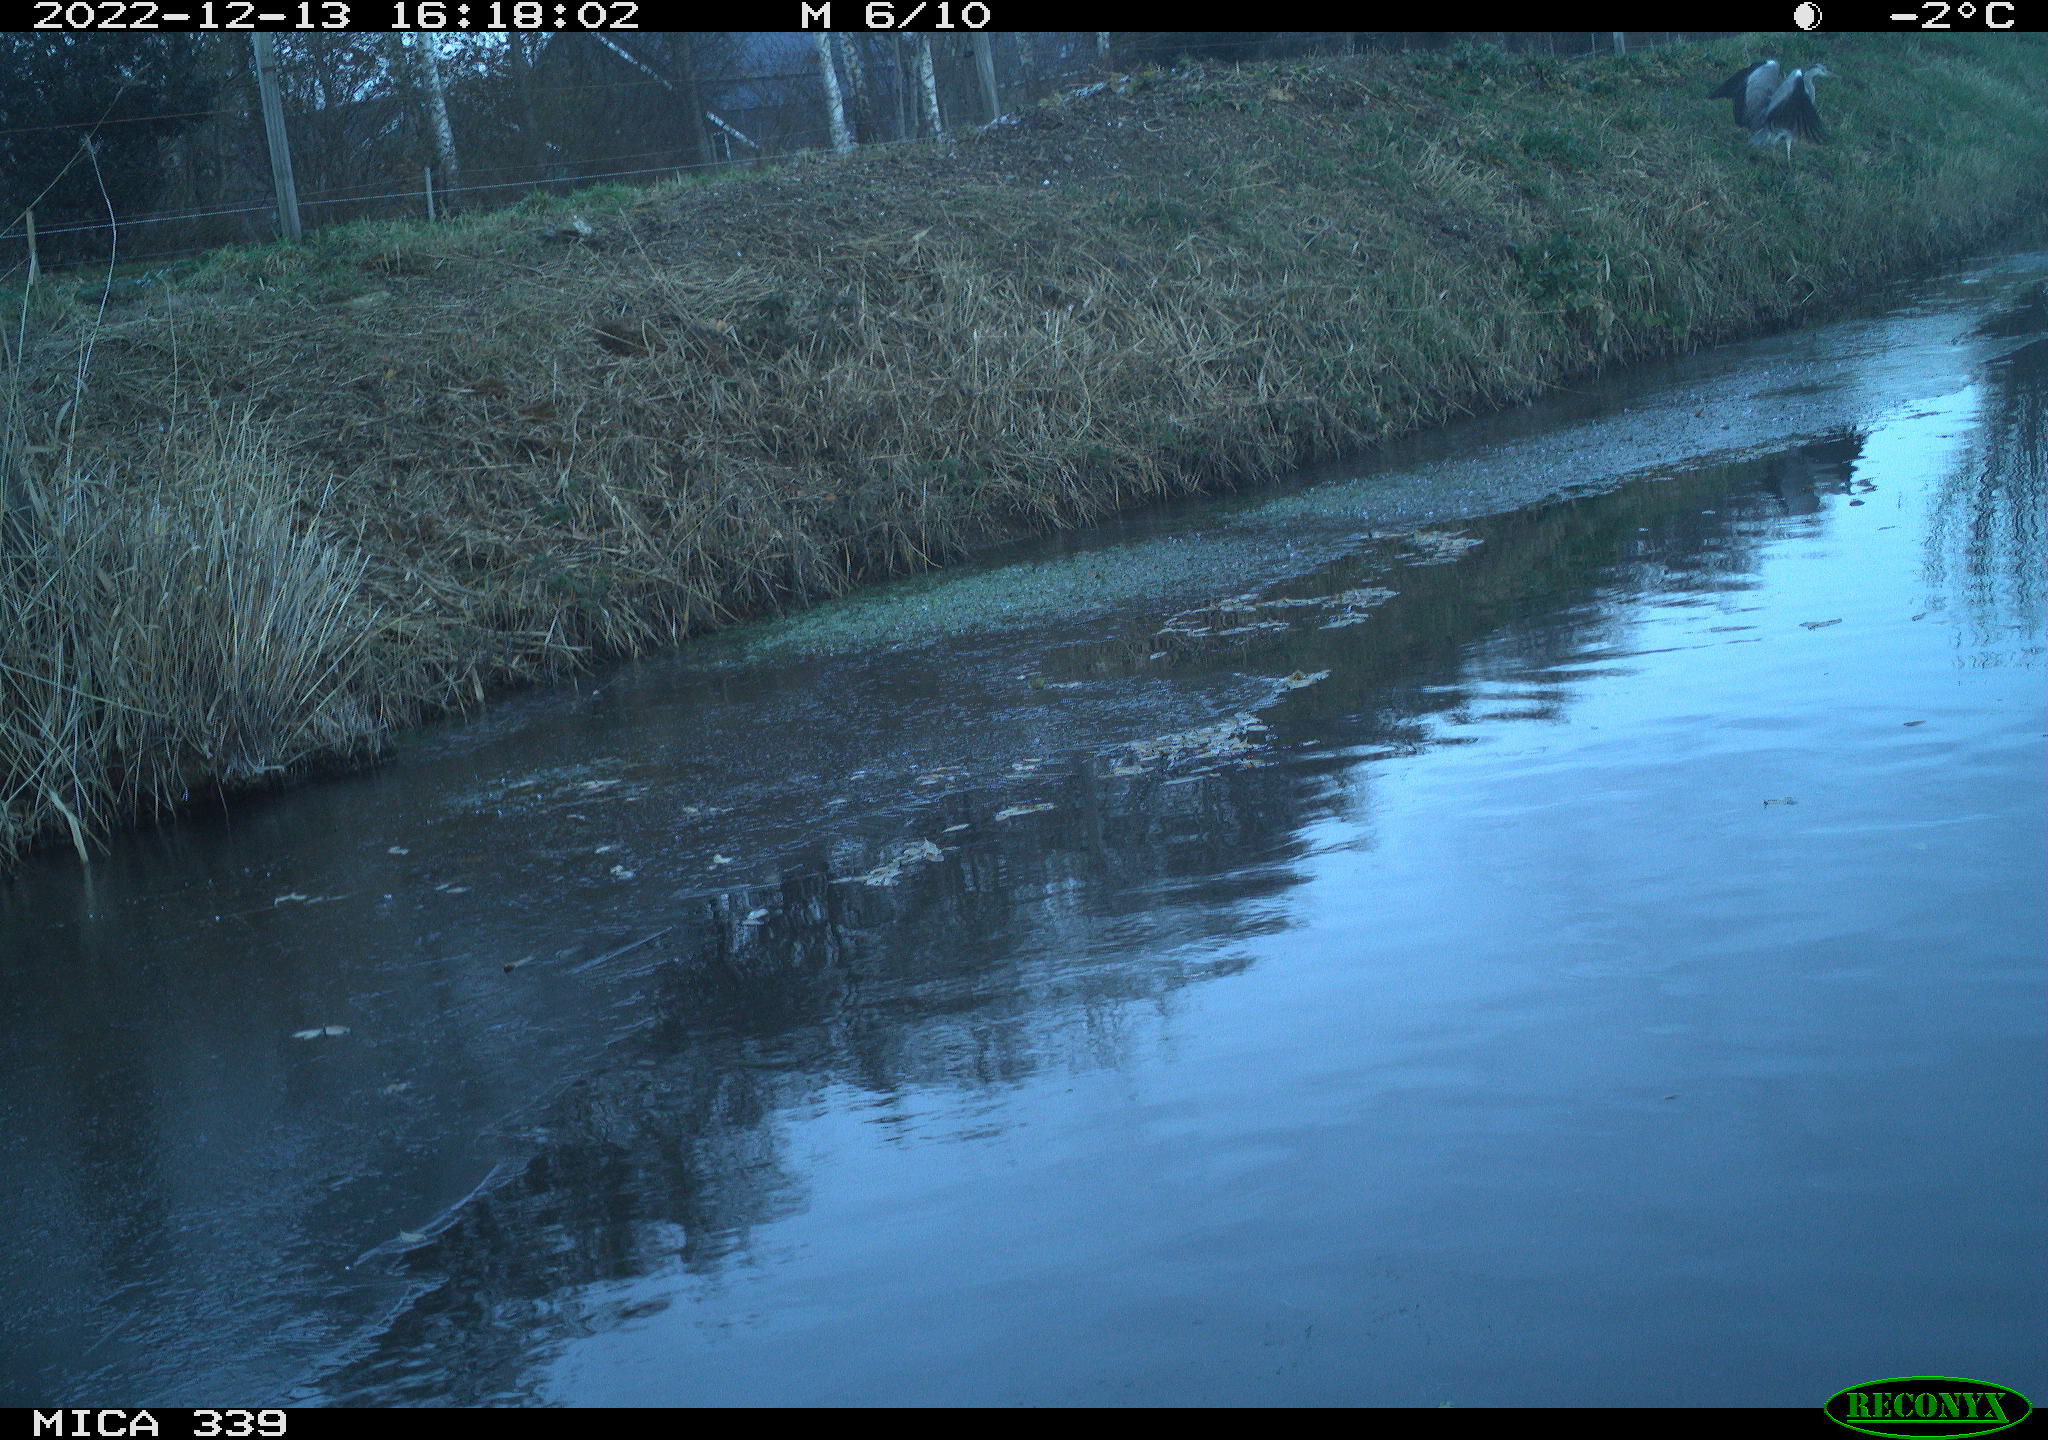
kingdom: Animalia
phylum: Chordata
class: Aves
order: Pelecaniformes
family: Ardeidae
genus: Ardea
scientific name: Ardea cinerea
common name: Grey heron
